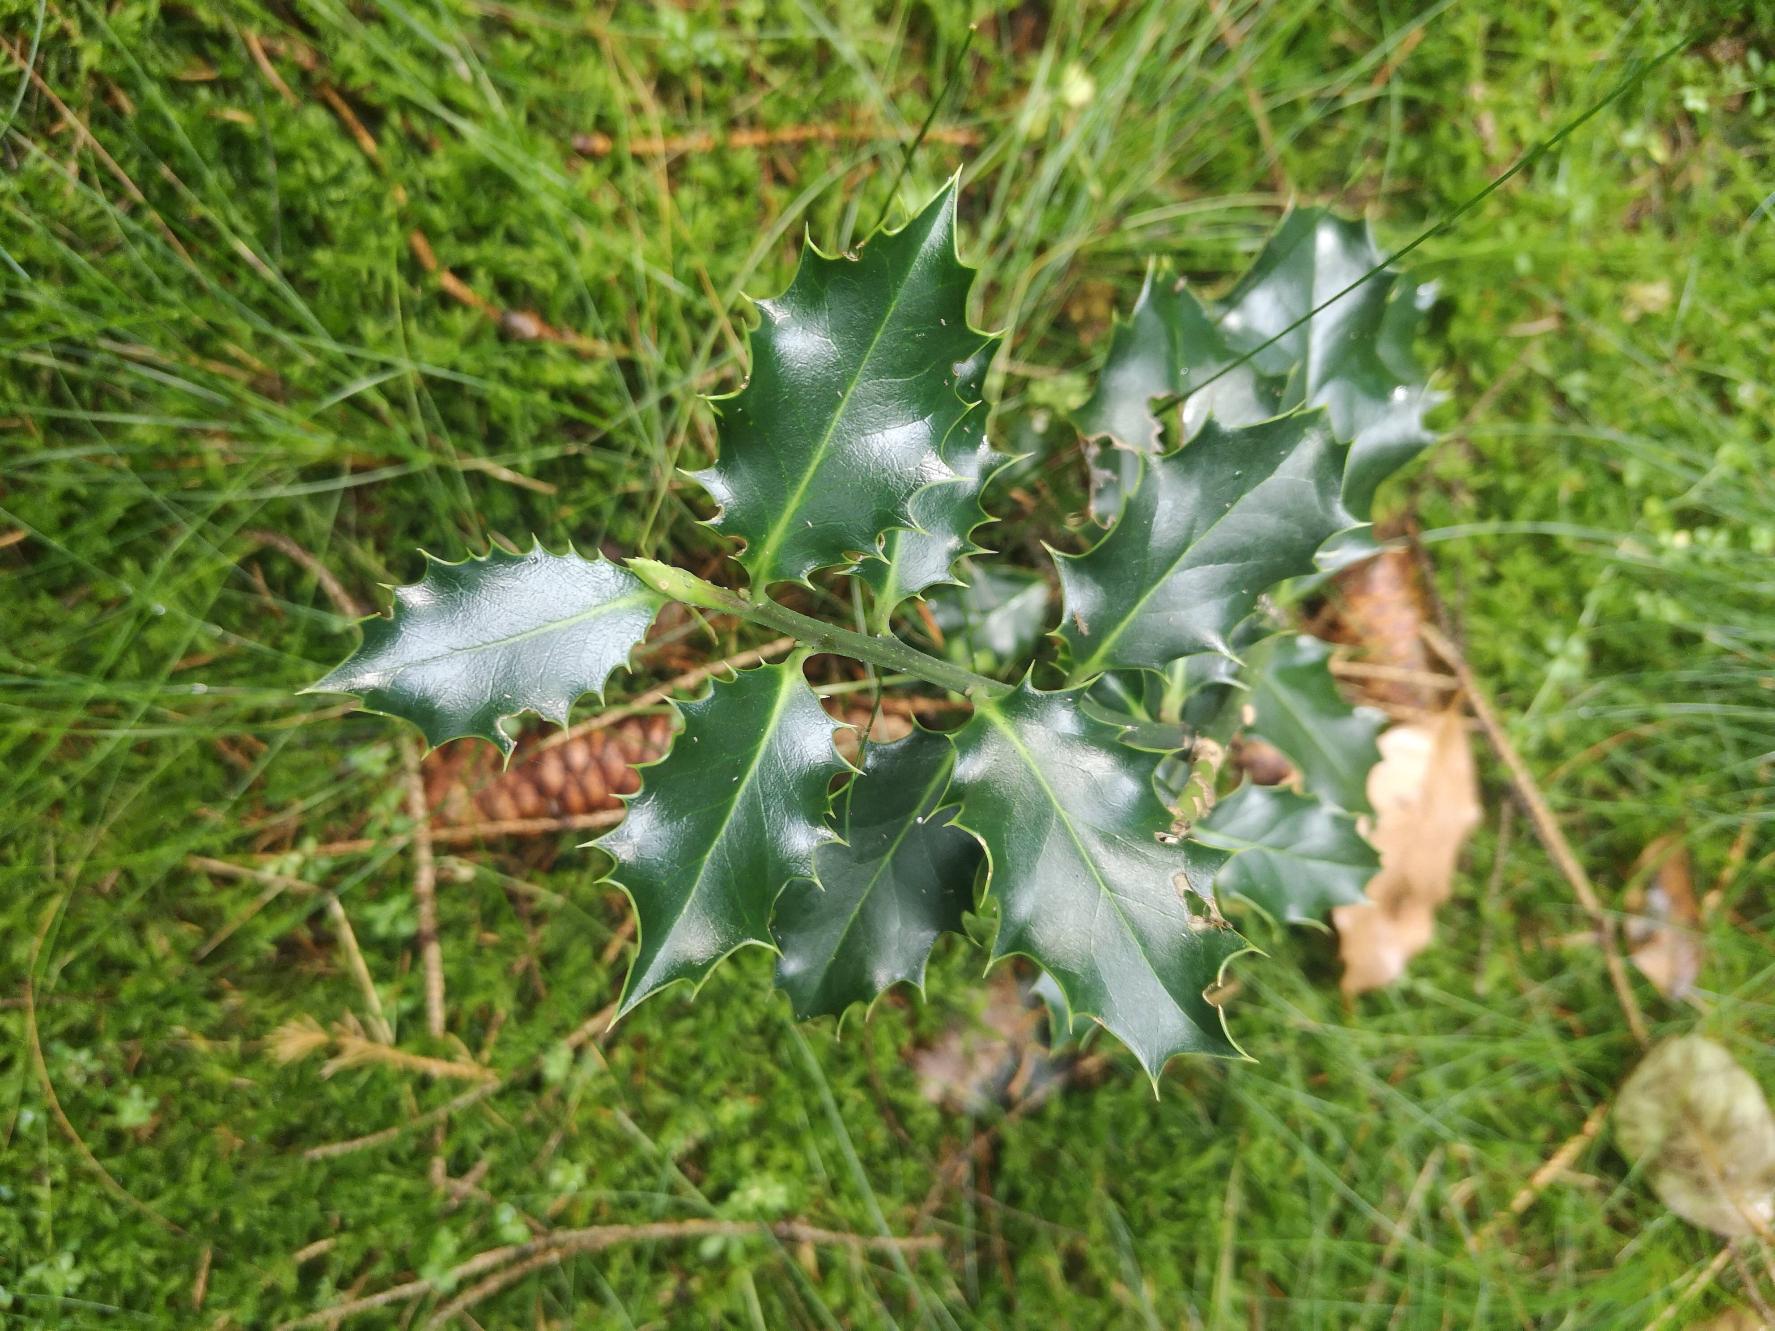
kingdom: Plantae
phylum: Tracheophyta
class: Magnoliopsida
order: Aquifoliales
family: Aquifoliaceae
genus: Ilex
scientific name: Ilex aquifolium
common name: Kristtorn
